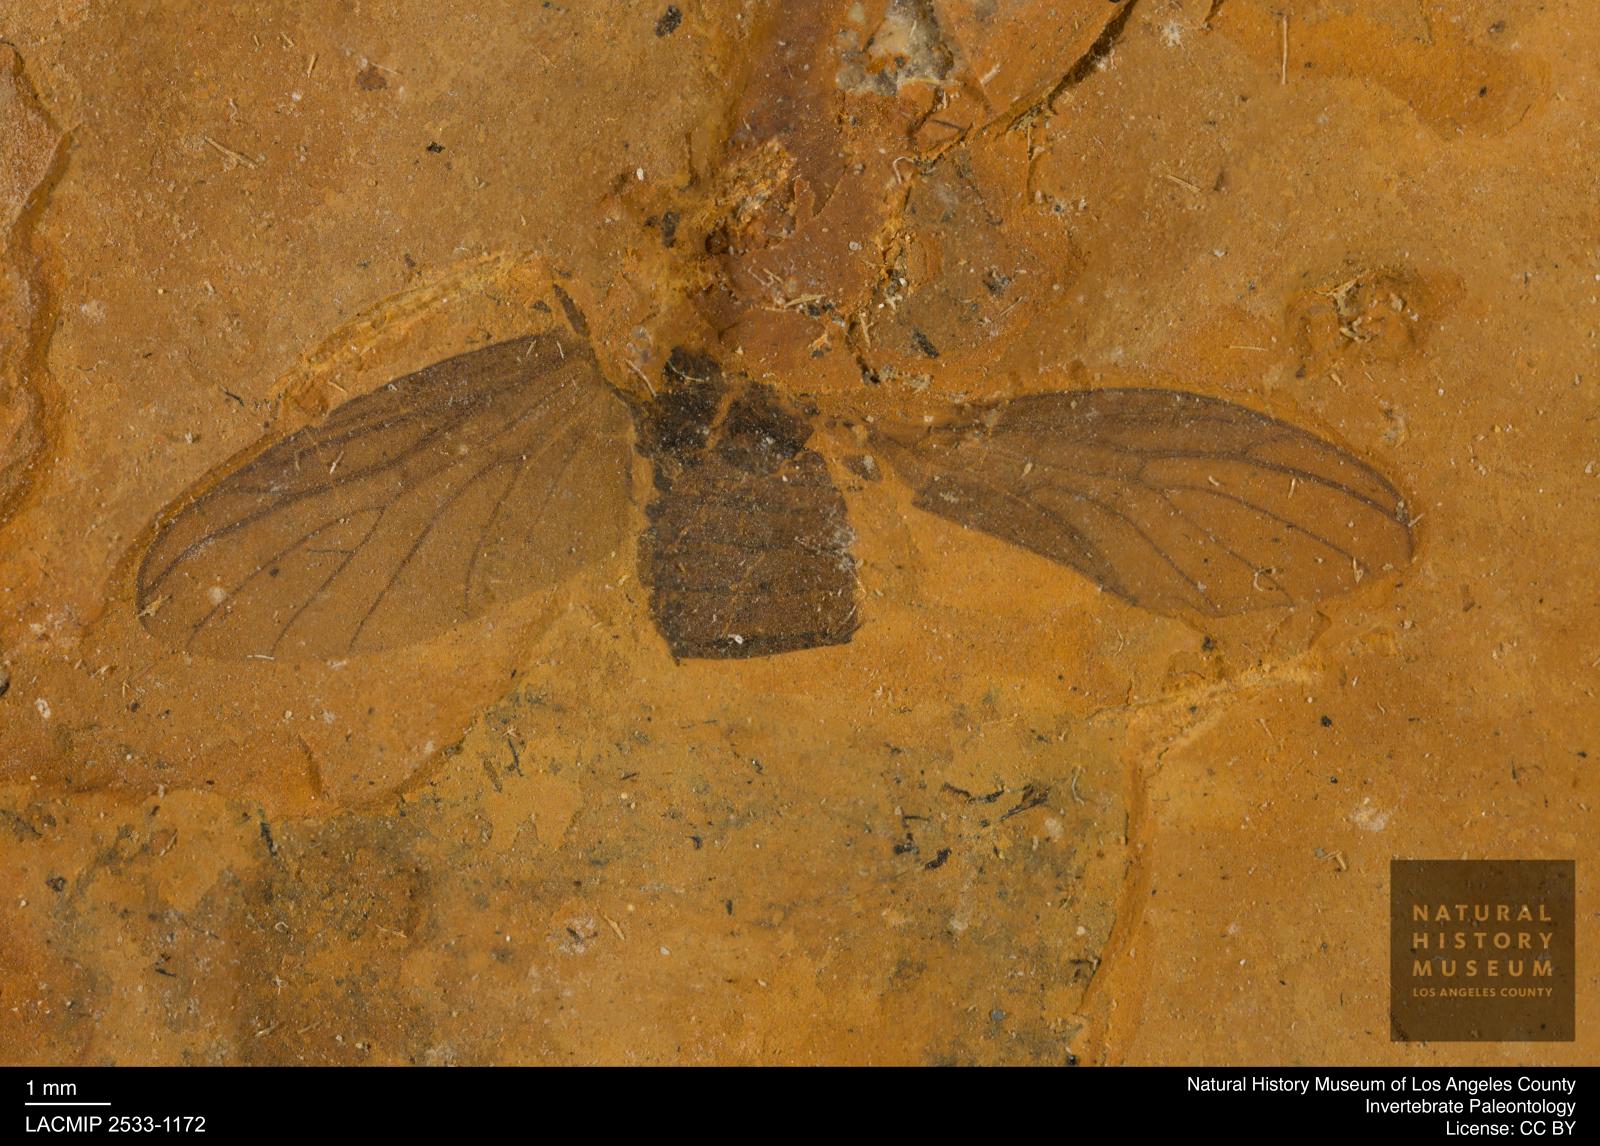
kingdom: Animalia
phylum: Arthropoda
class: Insecta
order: Diptera
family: Bibionidae
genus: Plecia
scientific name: Plecia grossa
